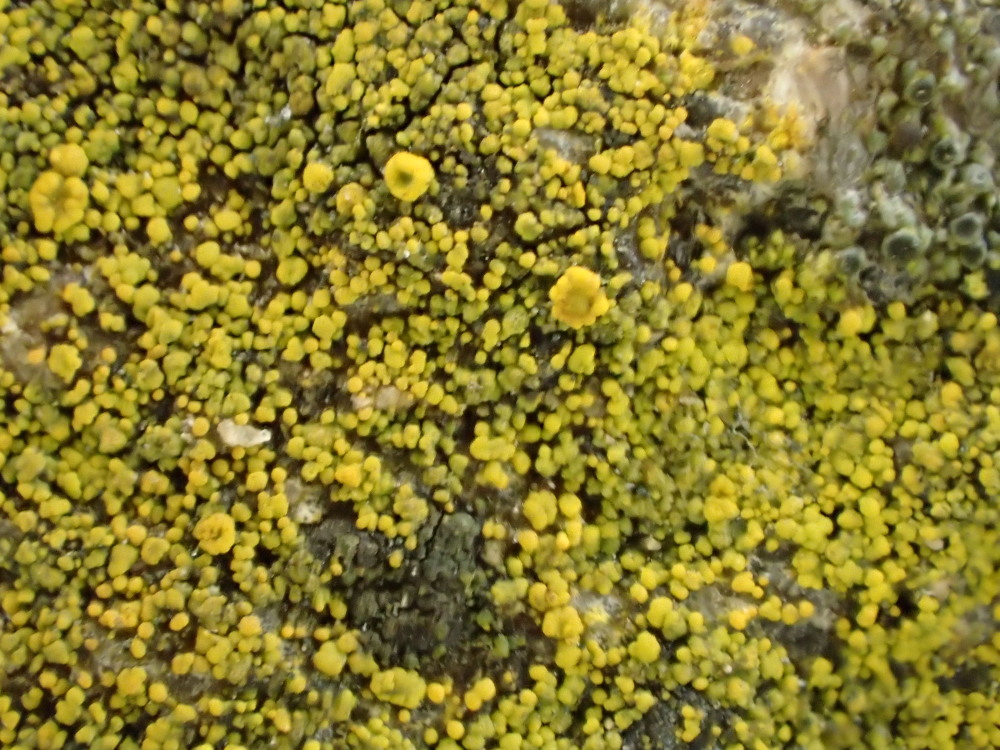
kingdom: Fungi
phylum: Ascomycota
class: Candelariomycetes
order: Candelariales
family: Candelariaceae
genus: Candelariella
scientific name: Candelariella vitellina
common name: almindelig æggeblommelav
